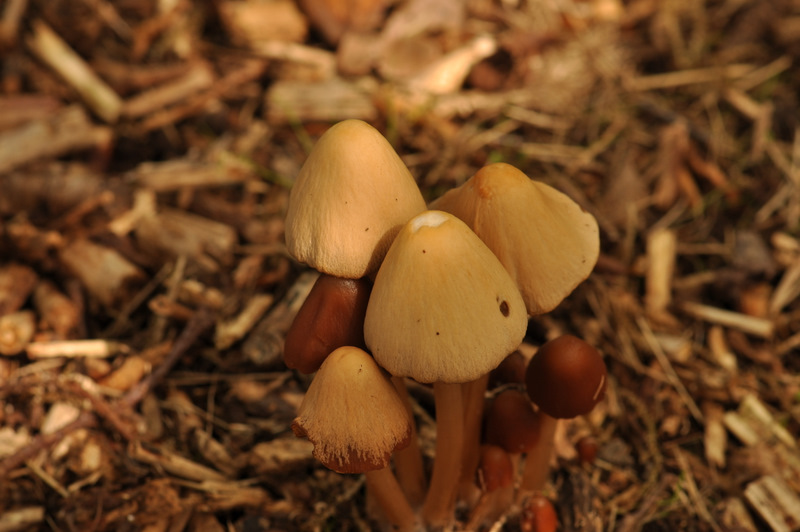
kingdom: Fungi
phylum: Basidiomycota
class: Agaricomycetes
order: Agaricales
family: Psathyrellaceae
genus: Parasola
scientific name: Parasola conopilea
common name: kegle-hjulhat
